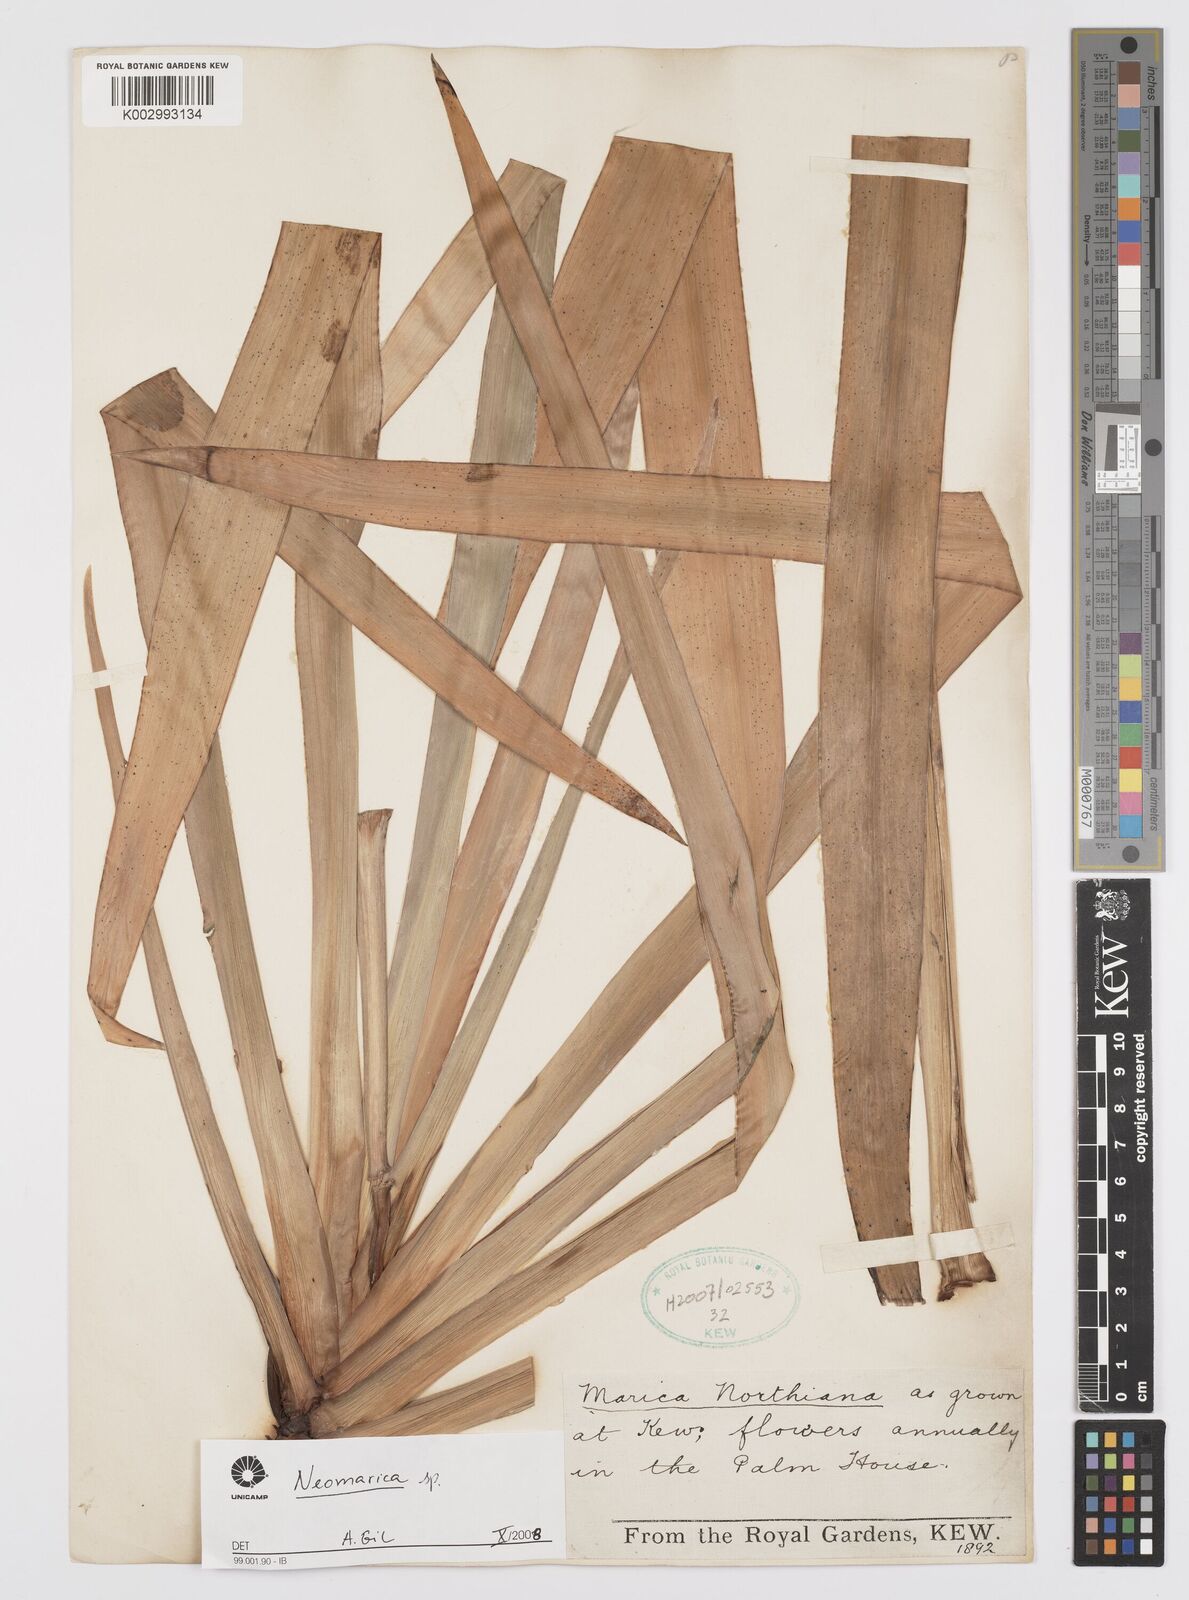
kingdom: Plantae
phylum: Tracheophyta
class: Liliopsida
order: Asparagales
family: Iridaceae
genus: Trimezia
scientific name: Trimezia
